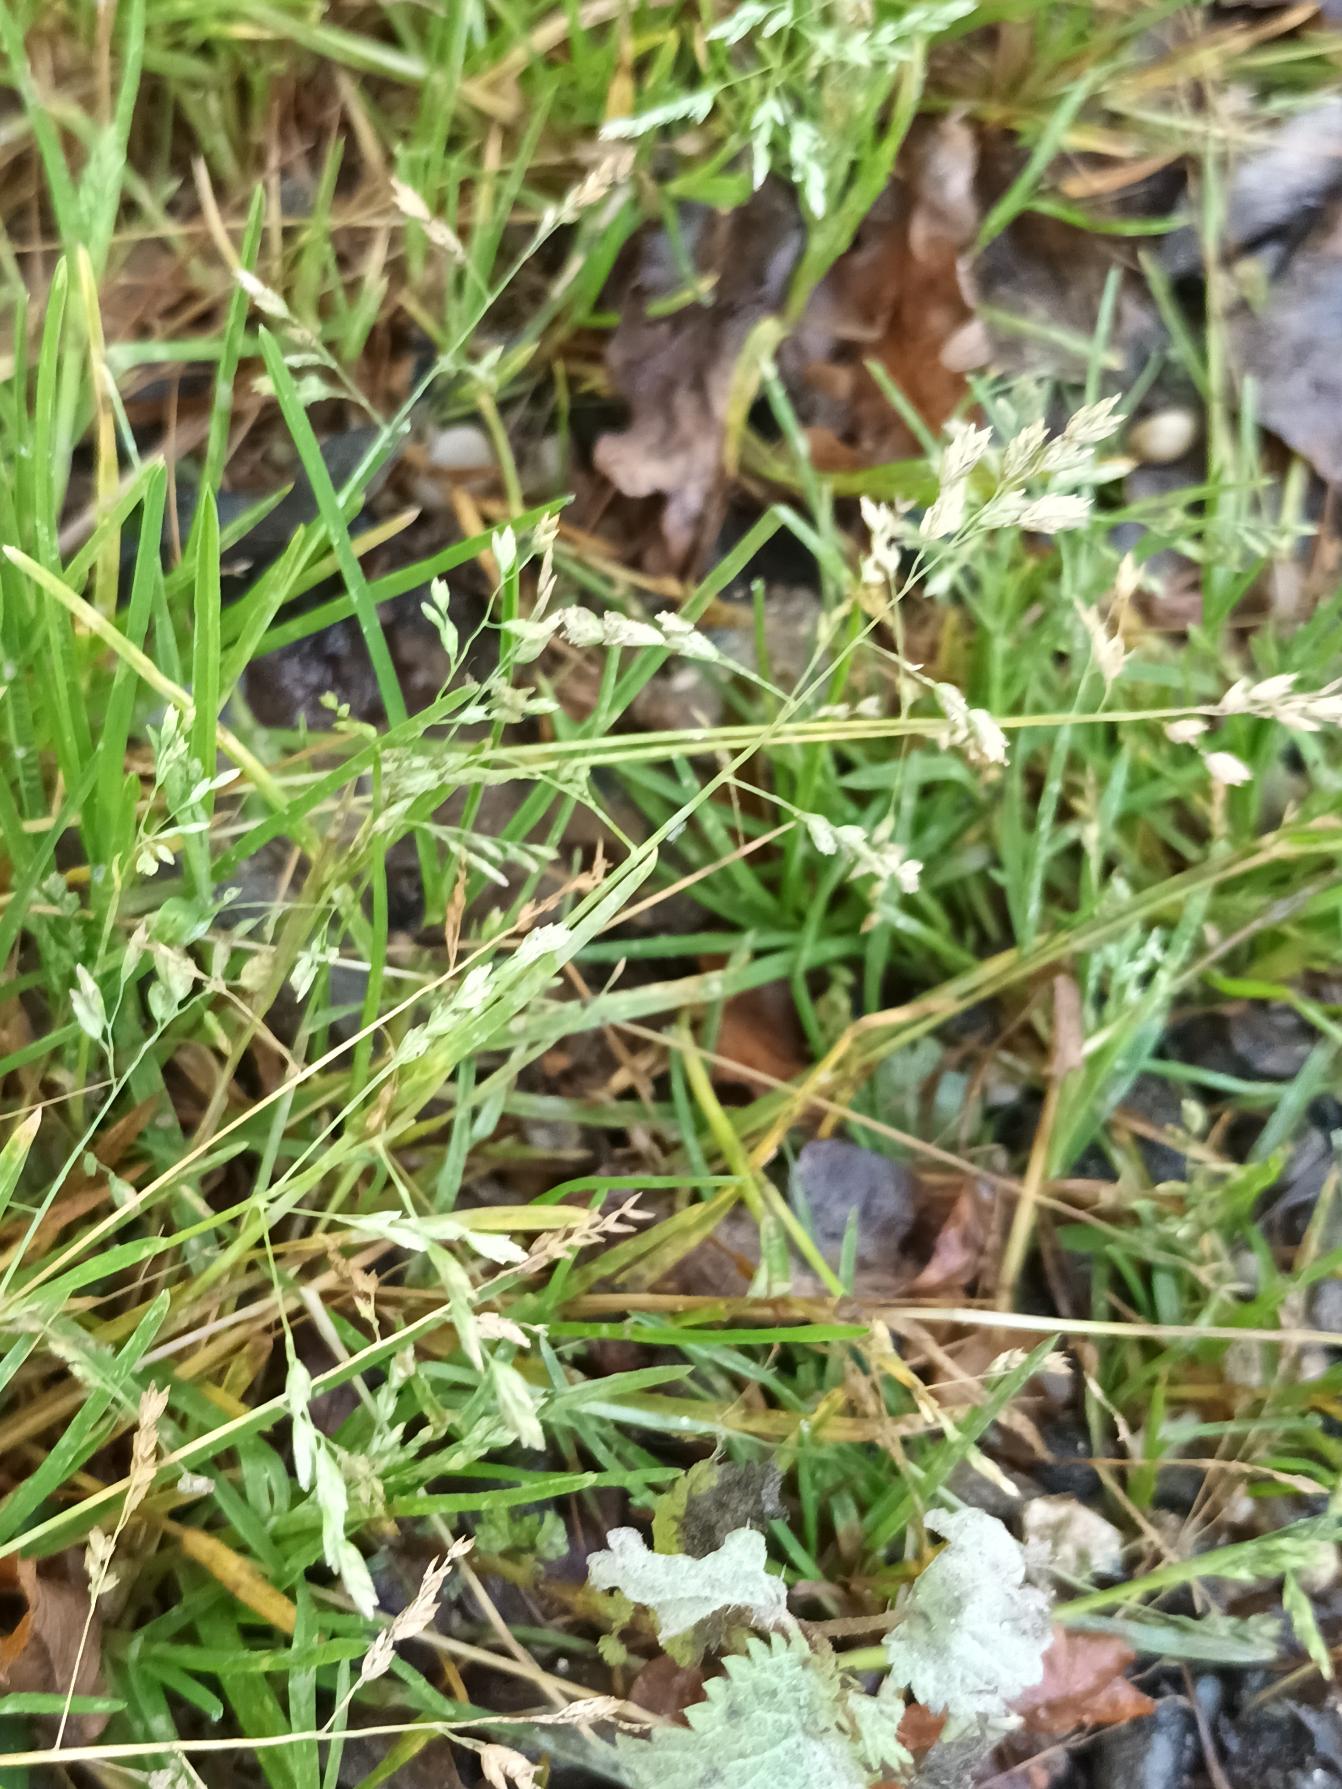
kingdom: Plantae
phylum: Tracheophyta
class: Liliopsida
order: Poales
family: Poaceae
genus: Poa
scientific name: Poa annua
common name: Enårig rapgræs
